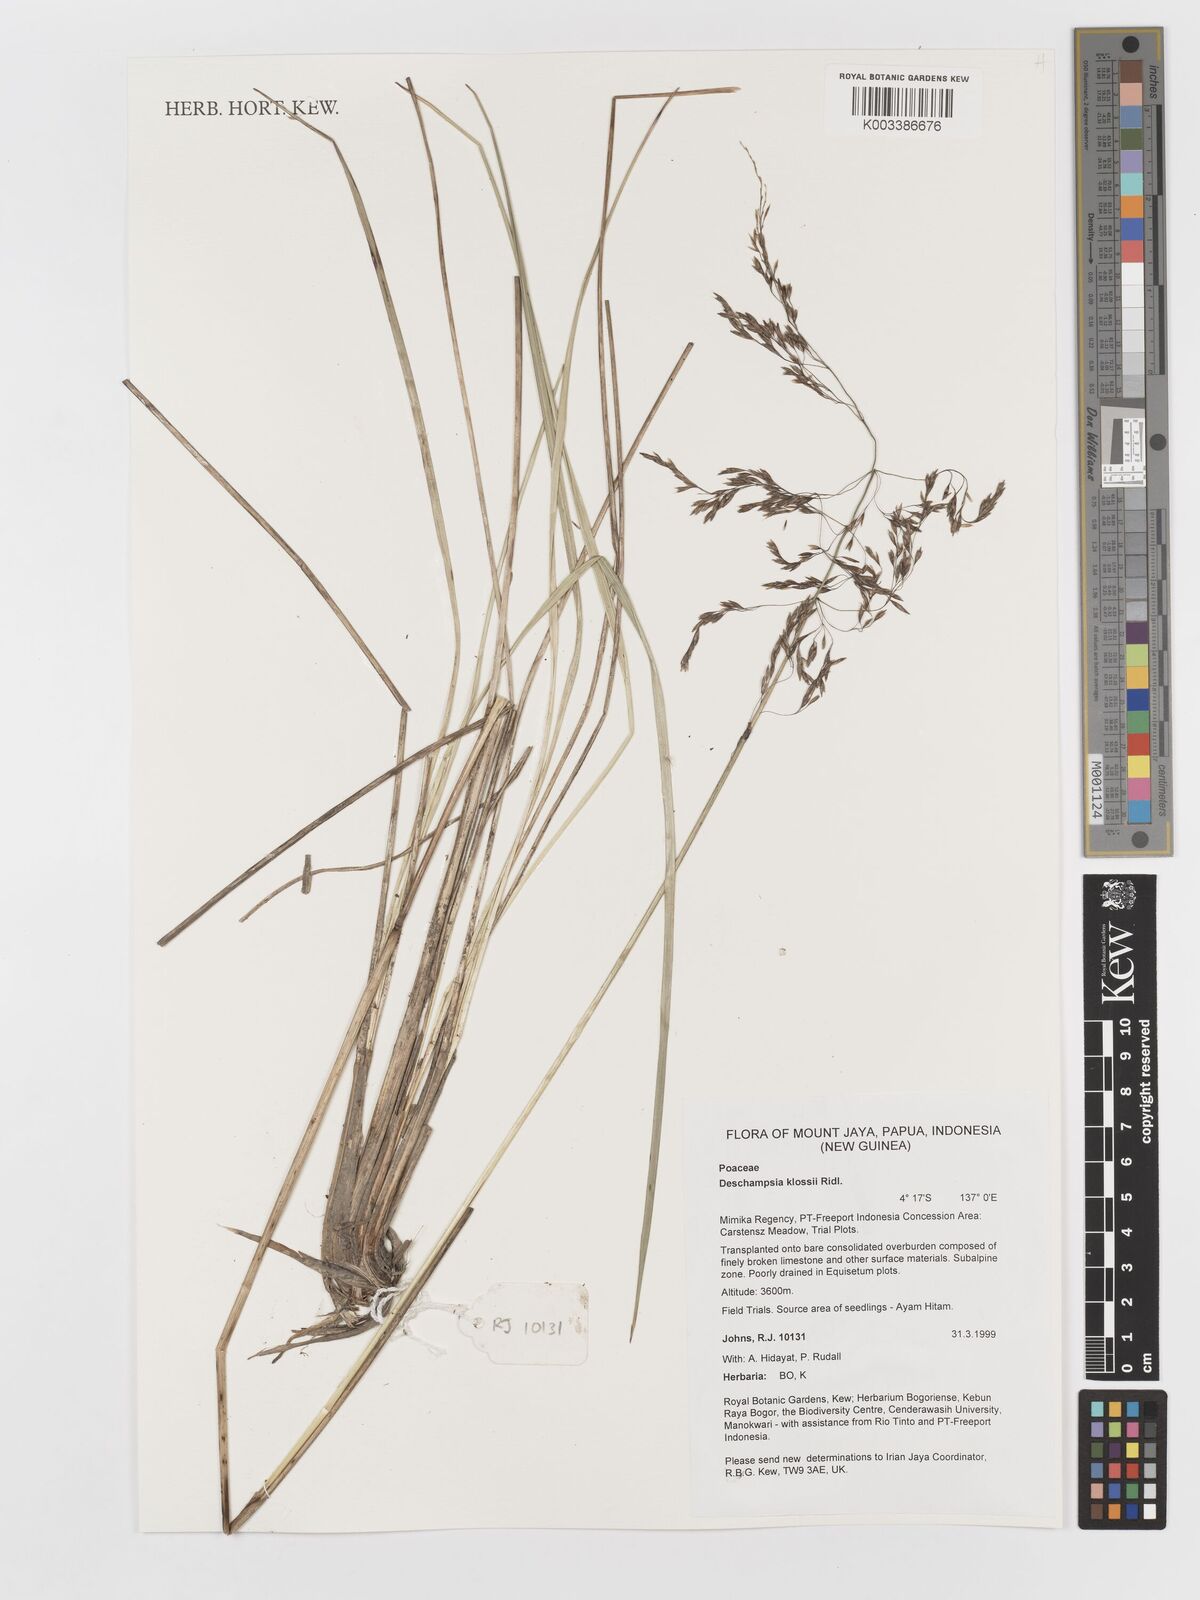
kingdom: Plantae
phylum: Tracheophyta
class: Liliopsida
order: Poales
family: Poaceae
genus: Deschampsia
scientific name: Deschampsia klossii
